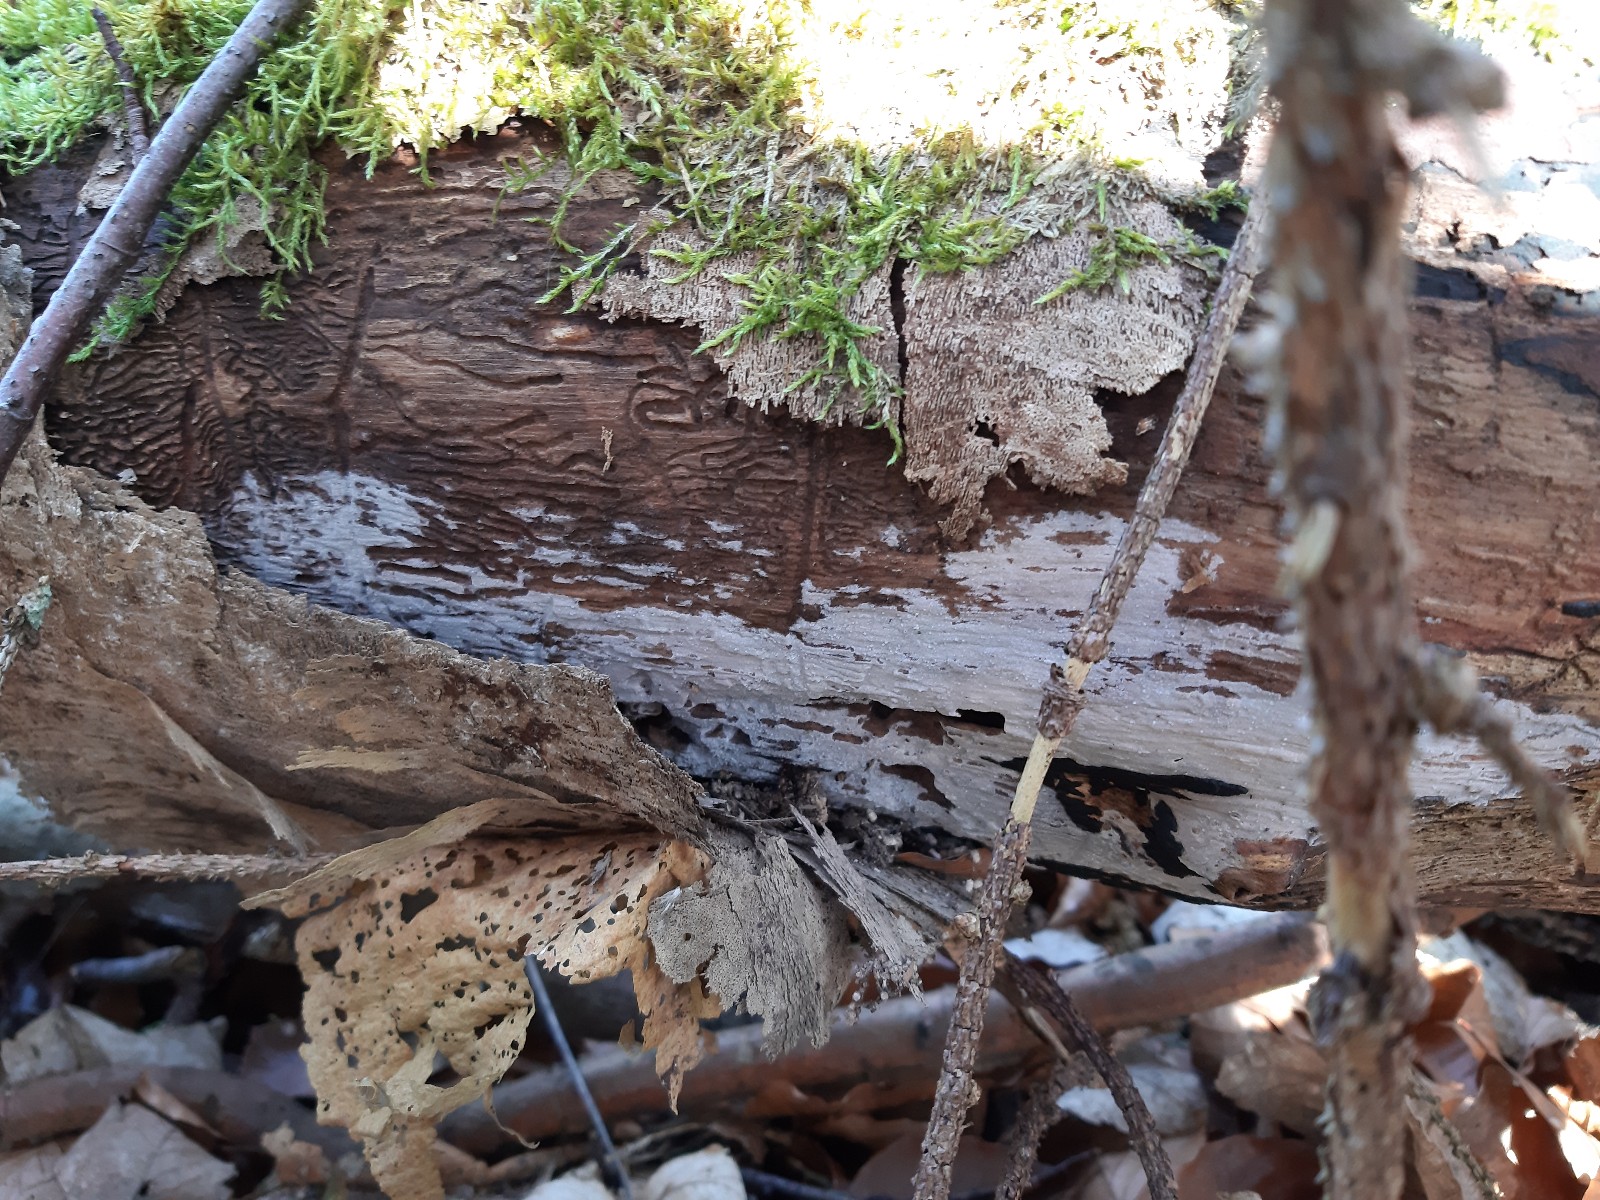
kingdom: Fungi
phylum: Basidiomycota
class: Agaricomycetes
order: Corticiales
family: Corticiaceae
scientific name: Corticiaceae
